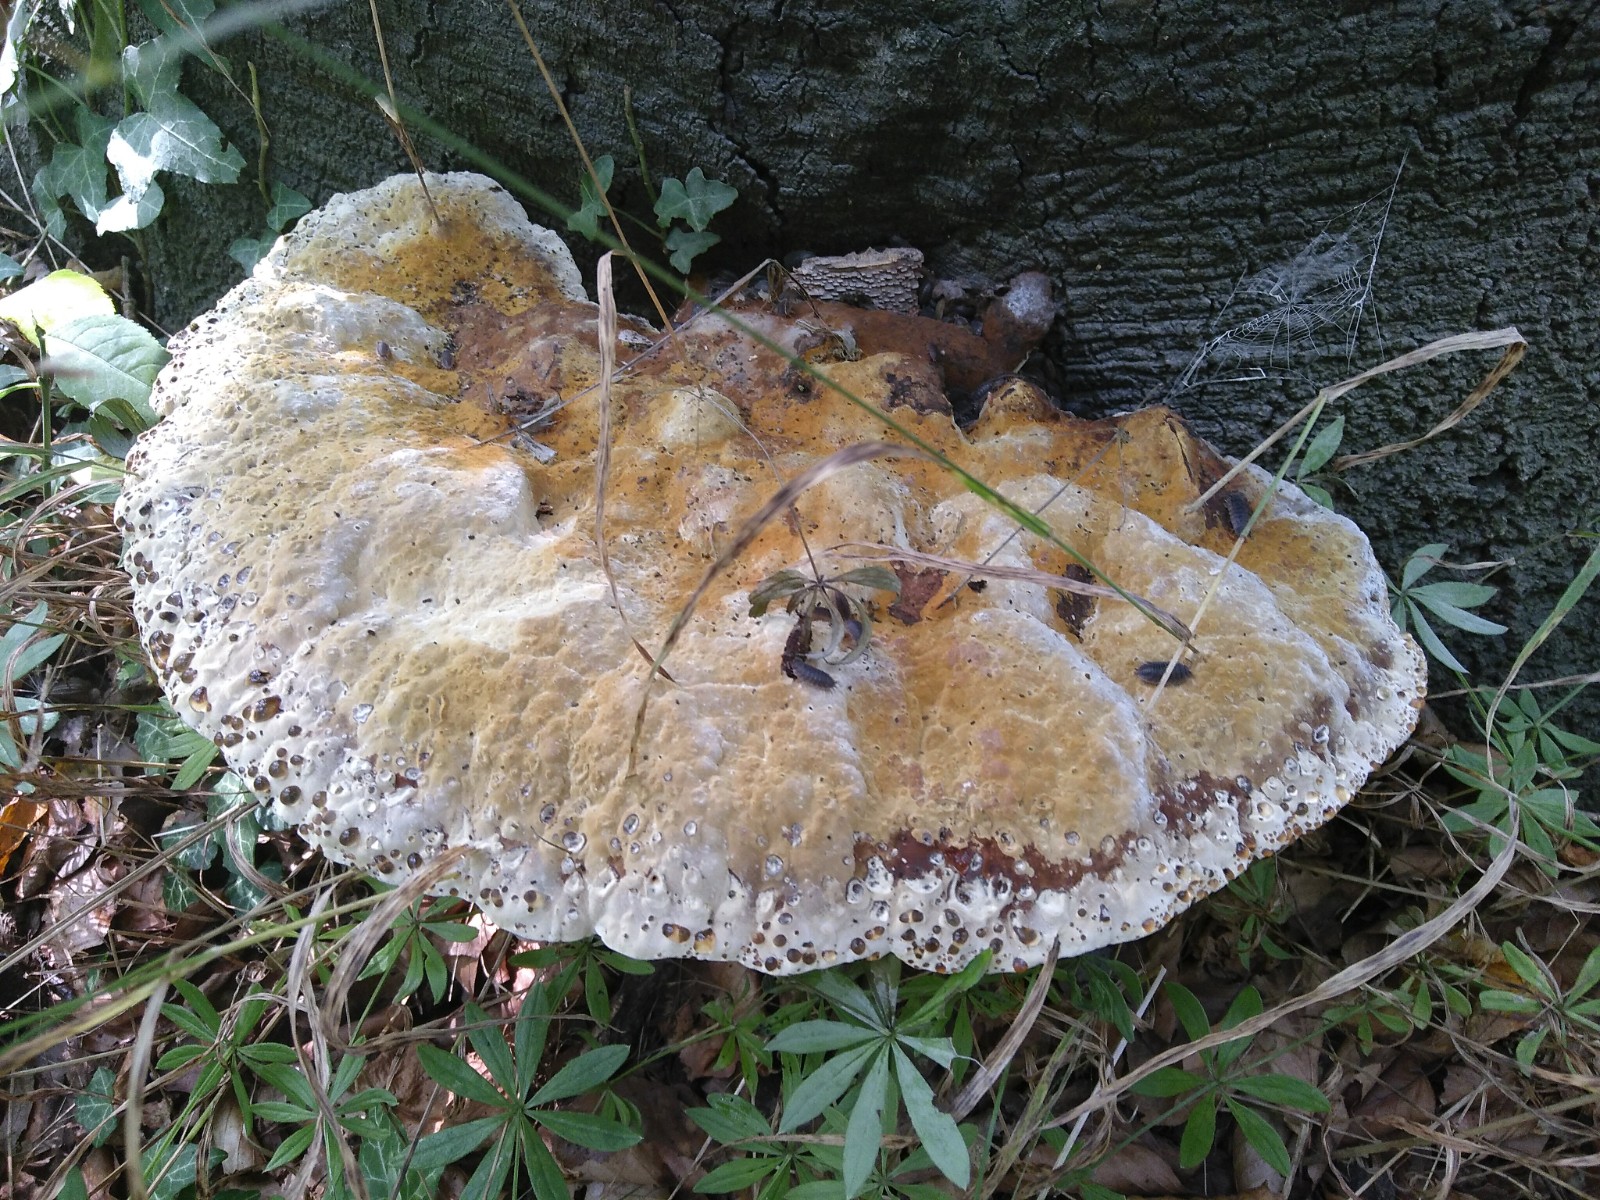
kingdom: Fungi
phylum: Basidiomycota
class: Agaricomycetes
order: Hymenochaetales
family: Hymenochaetaceae
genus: Pseudoinonotus
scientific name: Pseudoinonotus dryadeus
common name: ege-spejlporesvamp
